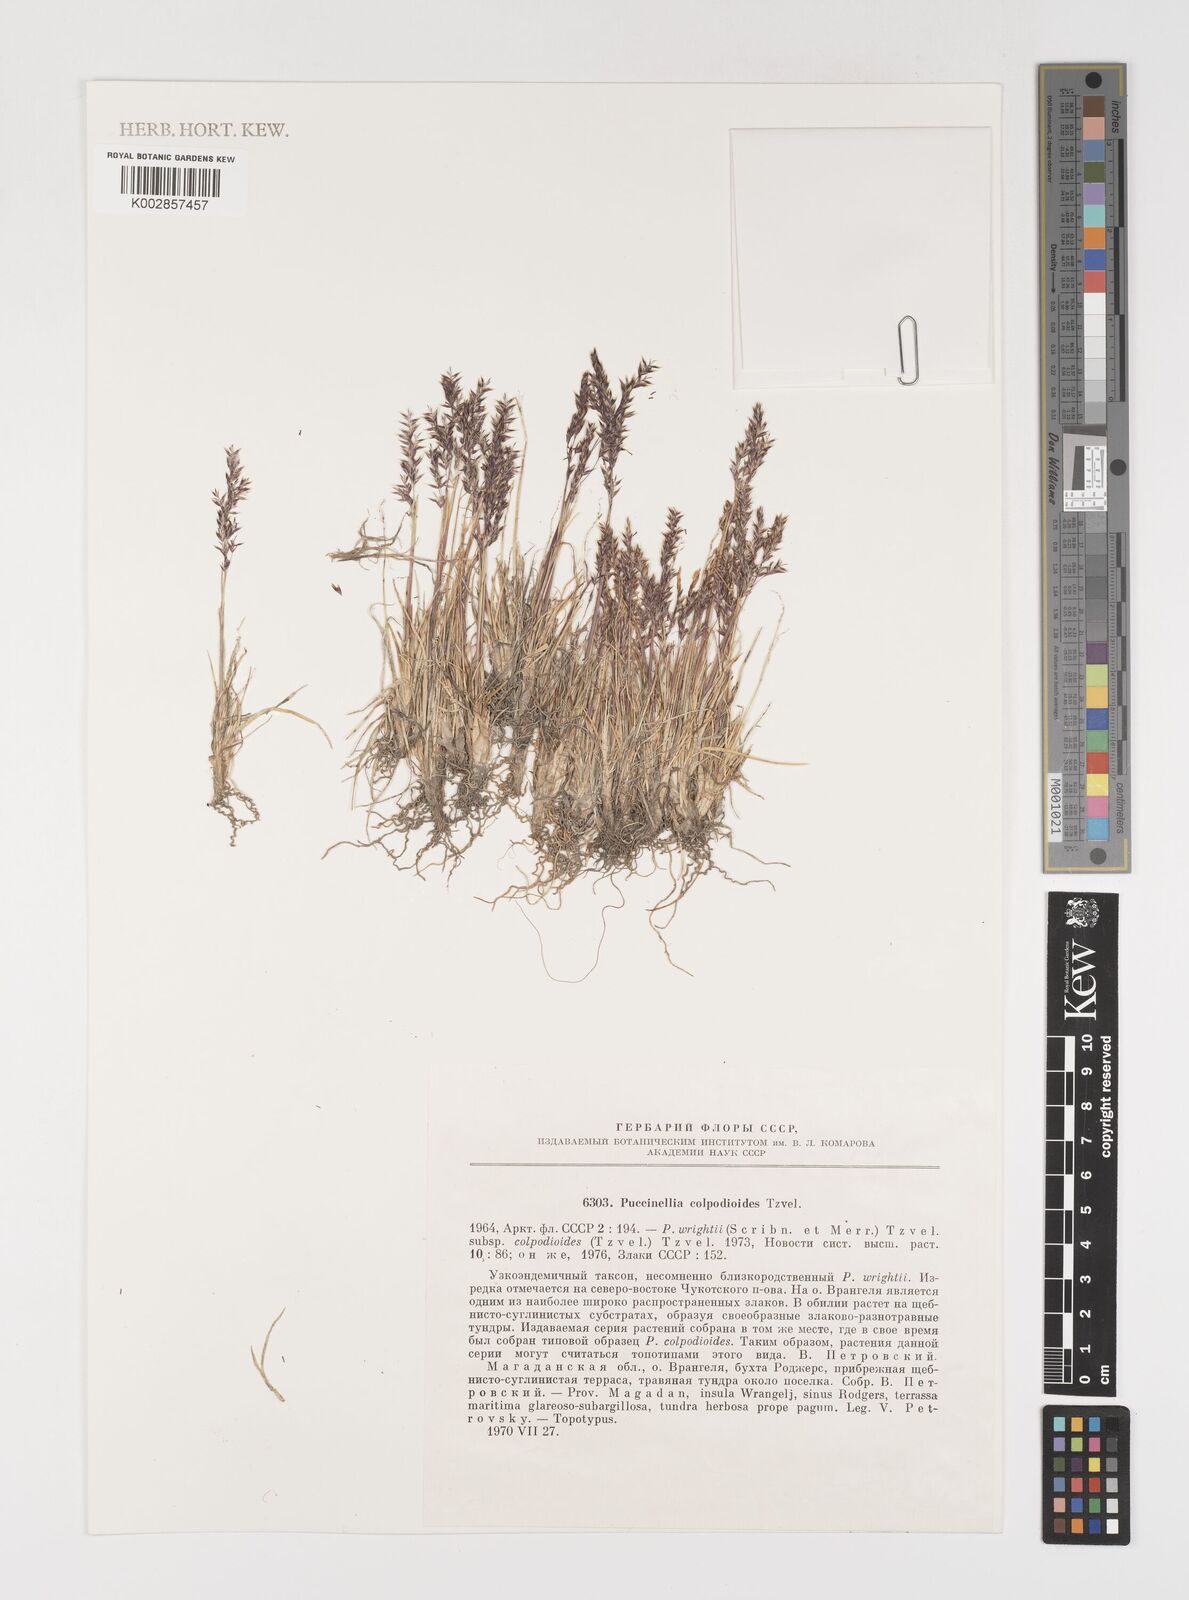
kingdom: Plantae
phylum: Tracheophyta
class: Liliopsida
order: Poales
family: Poaceae
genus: Puccinellia
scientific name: Puccinellia wrightii
